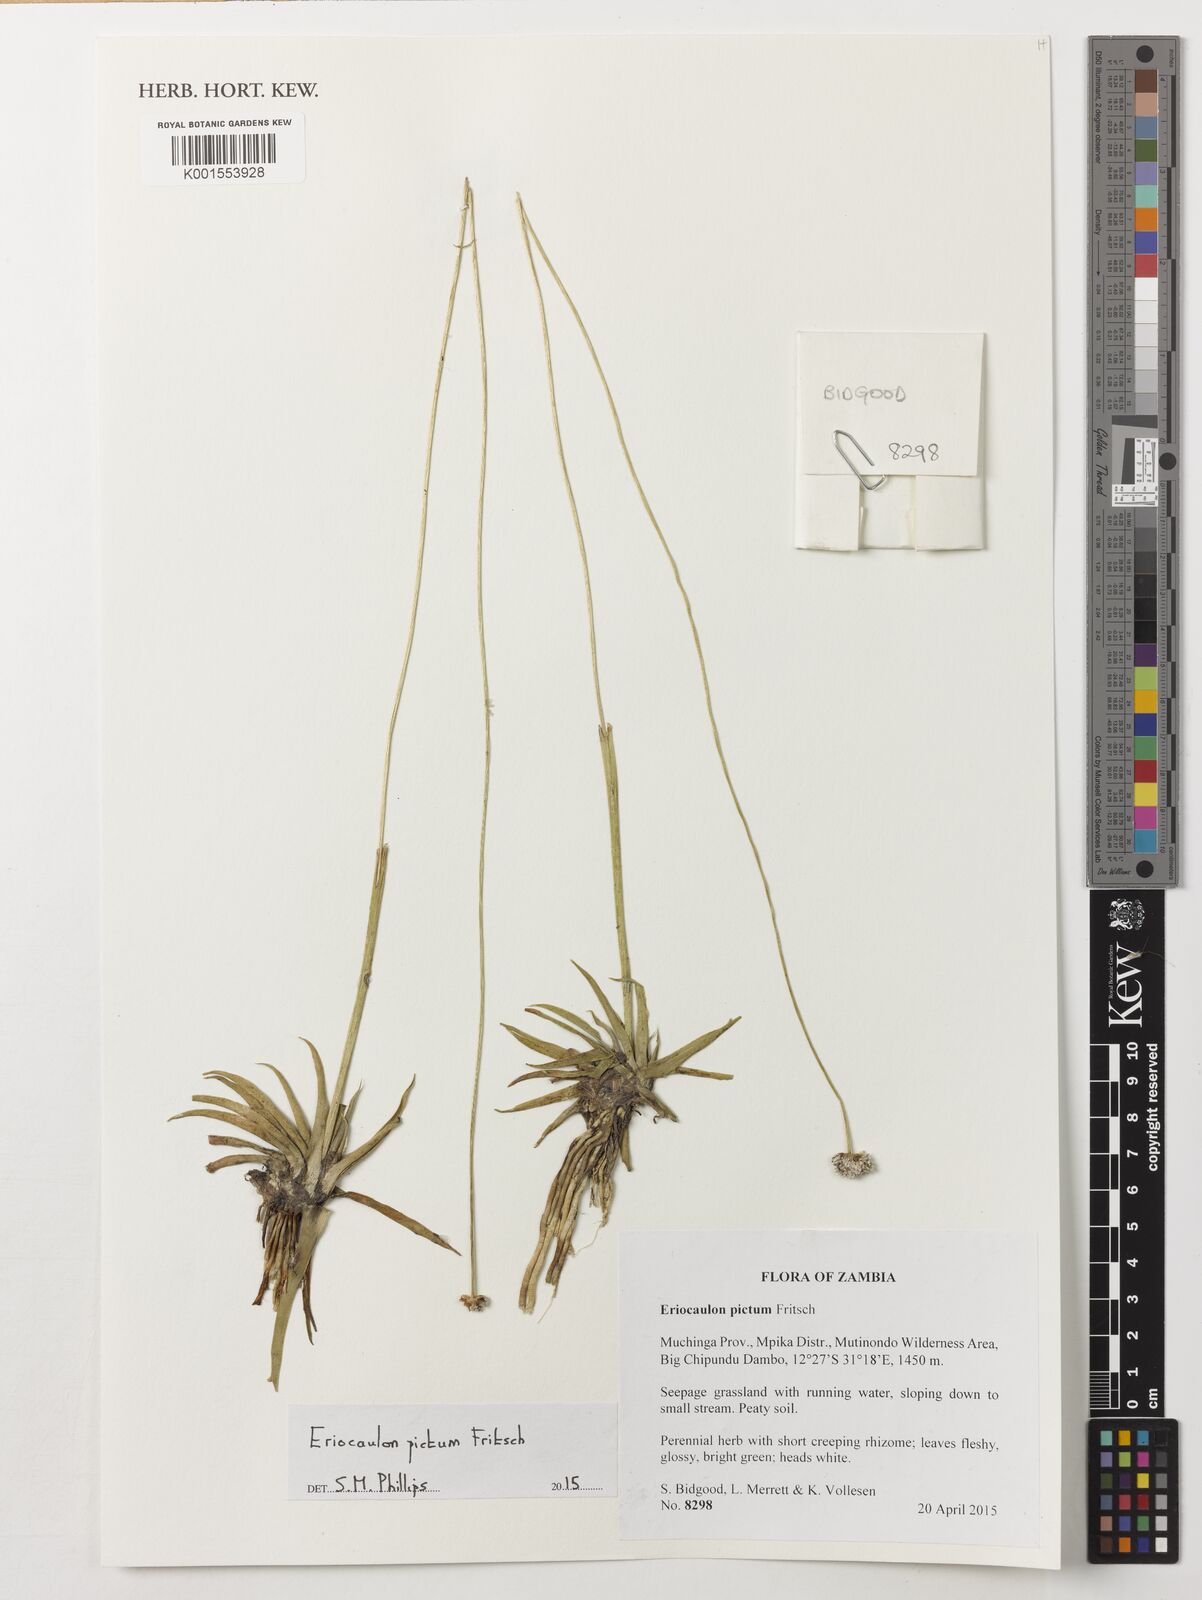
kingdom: Plantae
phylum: Tracheophyta
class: Liliopsida
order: Poales
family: Eriocaulaceae
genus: Eriocaulon
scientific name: Eriocaulon pictum
